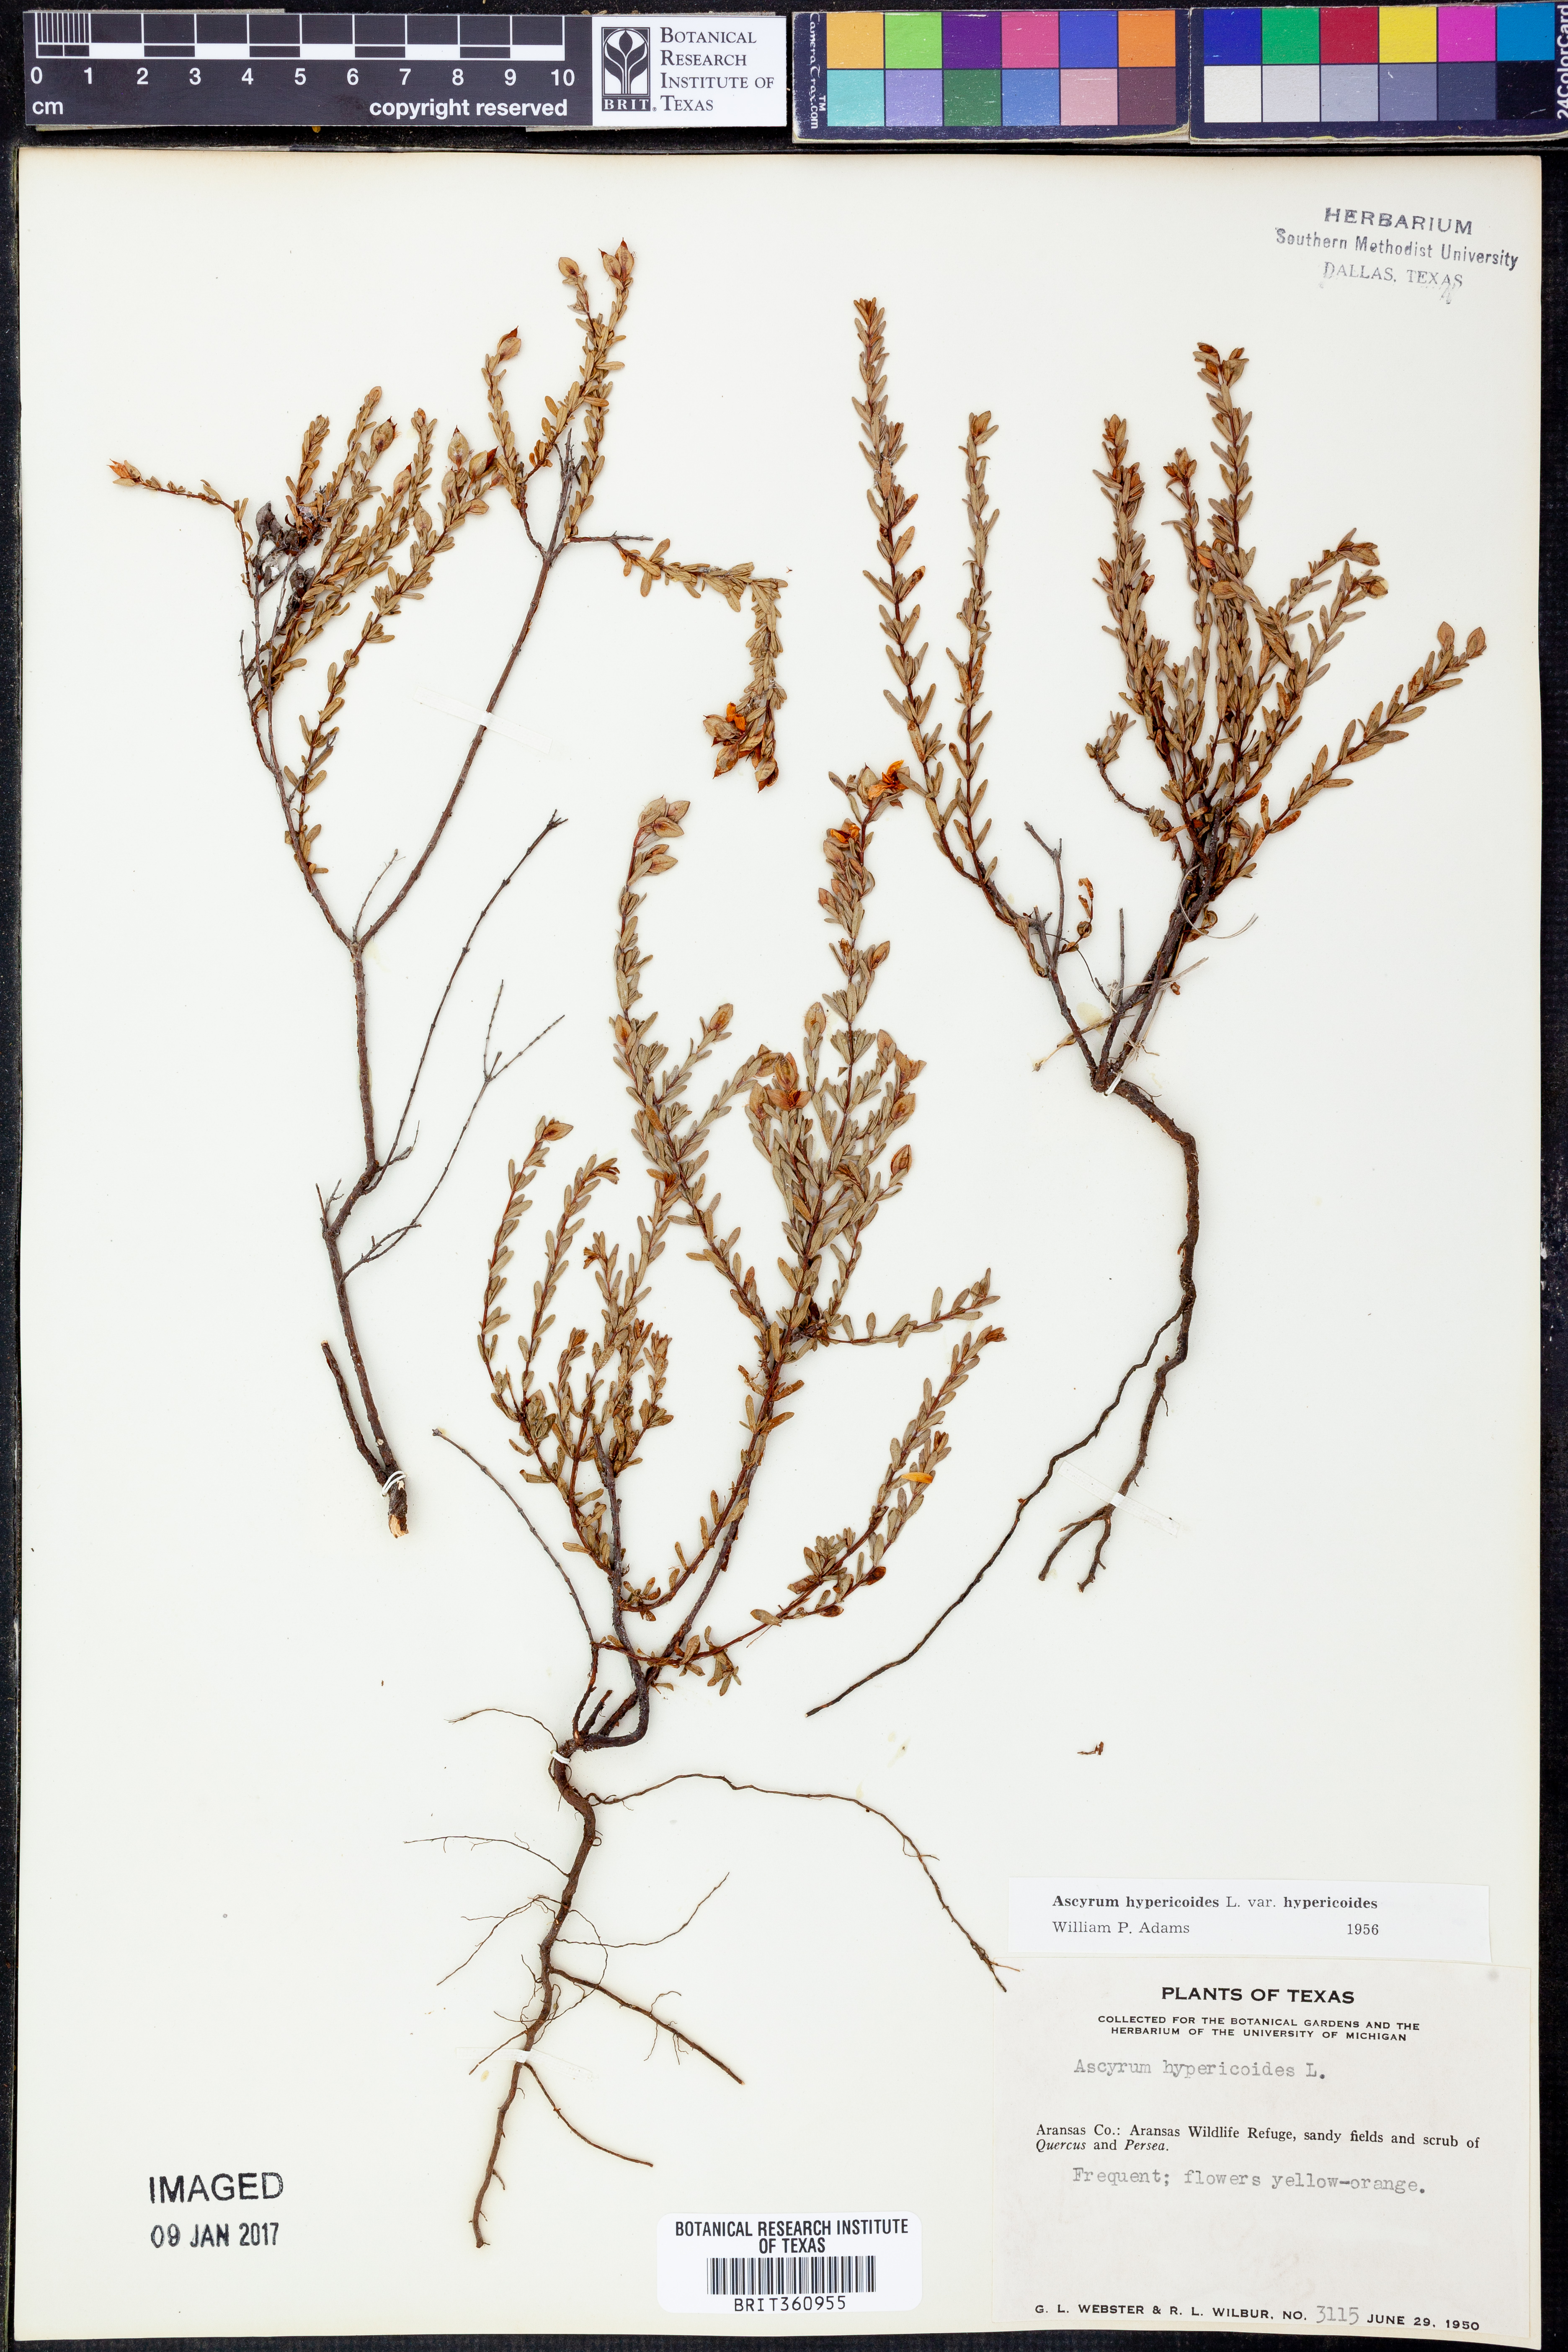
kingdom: Plantae
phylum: Tracheophyta
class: Magnoliopsida
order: Malpighiales
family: Hypericaceae
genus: Hypericum
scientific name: Hypericum hypericoides
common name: St. andrew's cross
